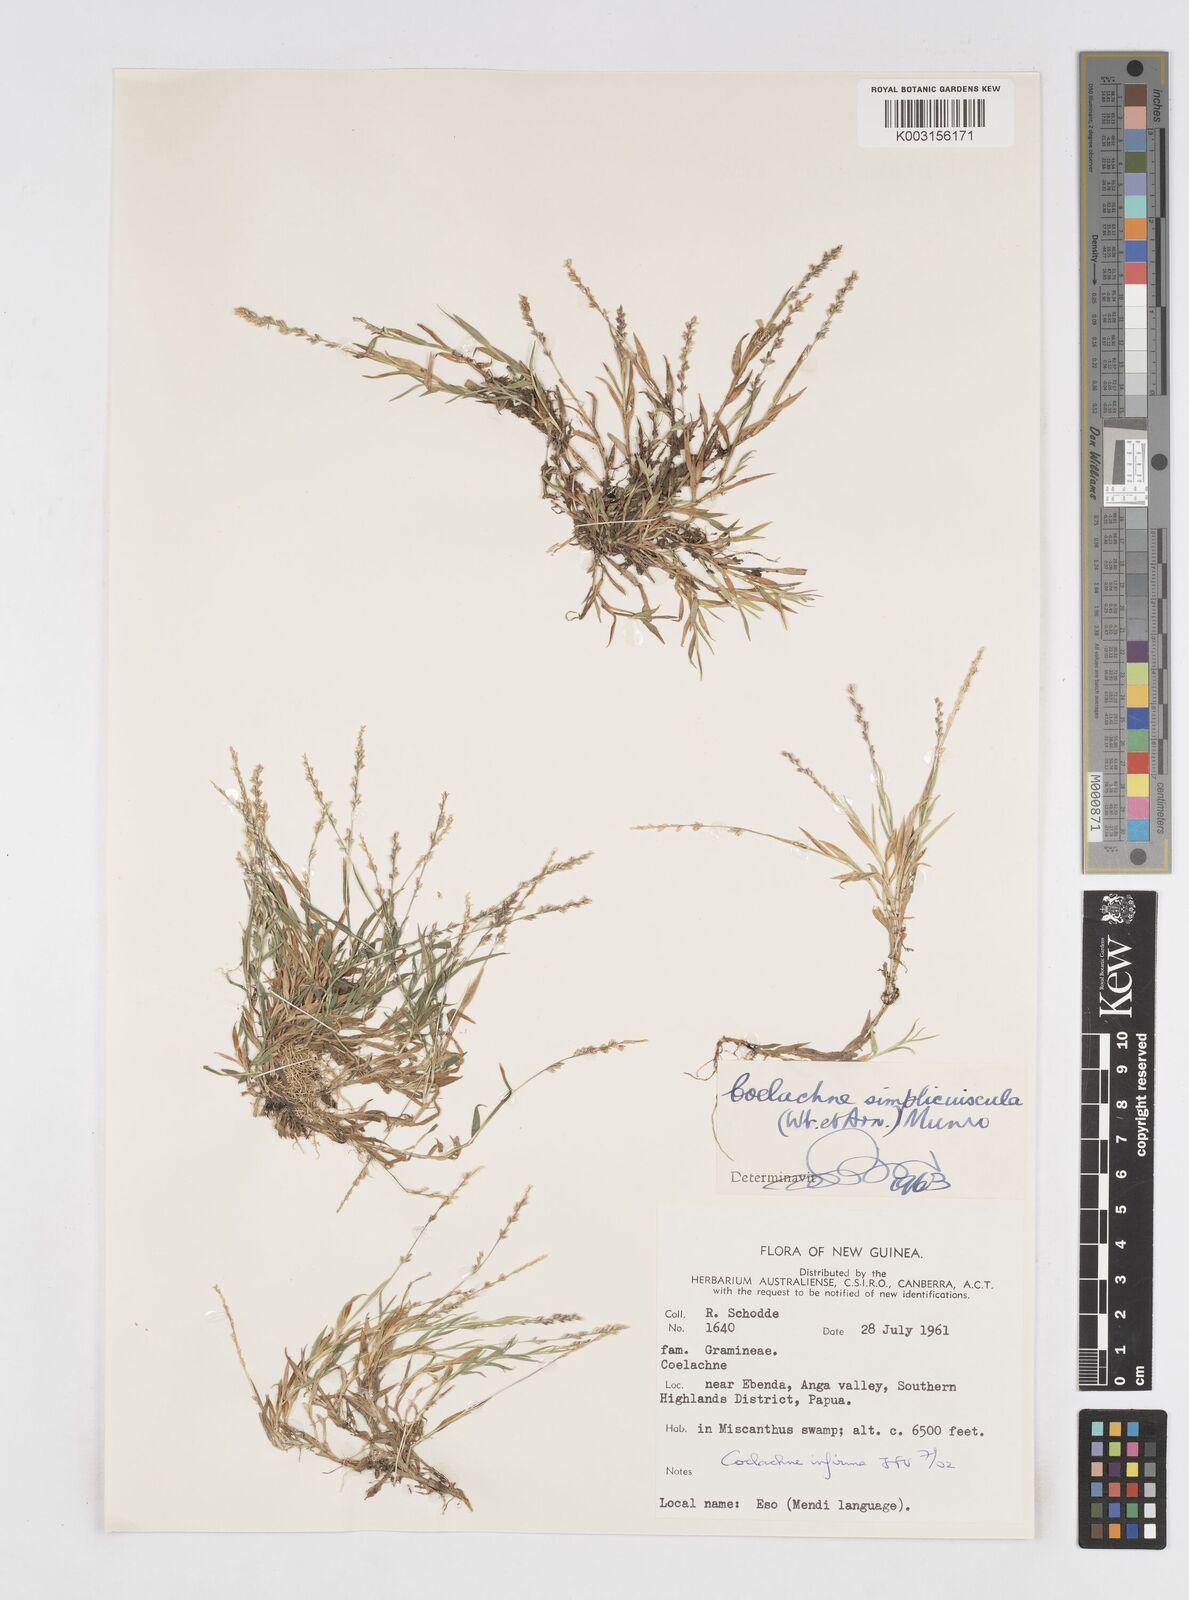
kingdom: Plantae
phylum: Tracheophyta
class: Liliopsida
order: Poales
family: Poaceae
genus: Coelachne
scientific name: Coelachne
